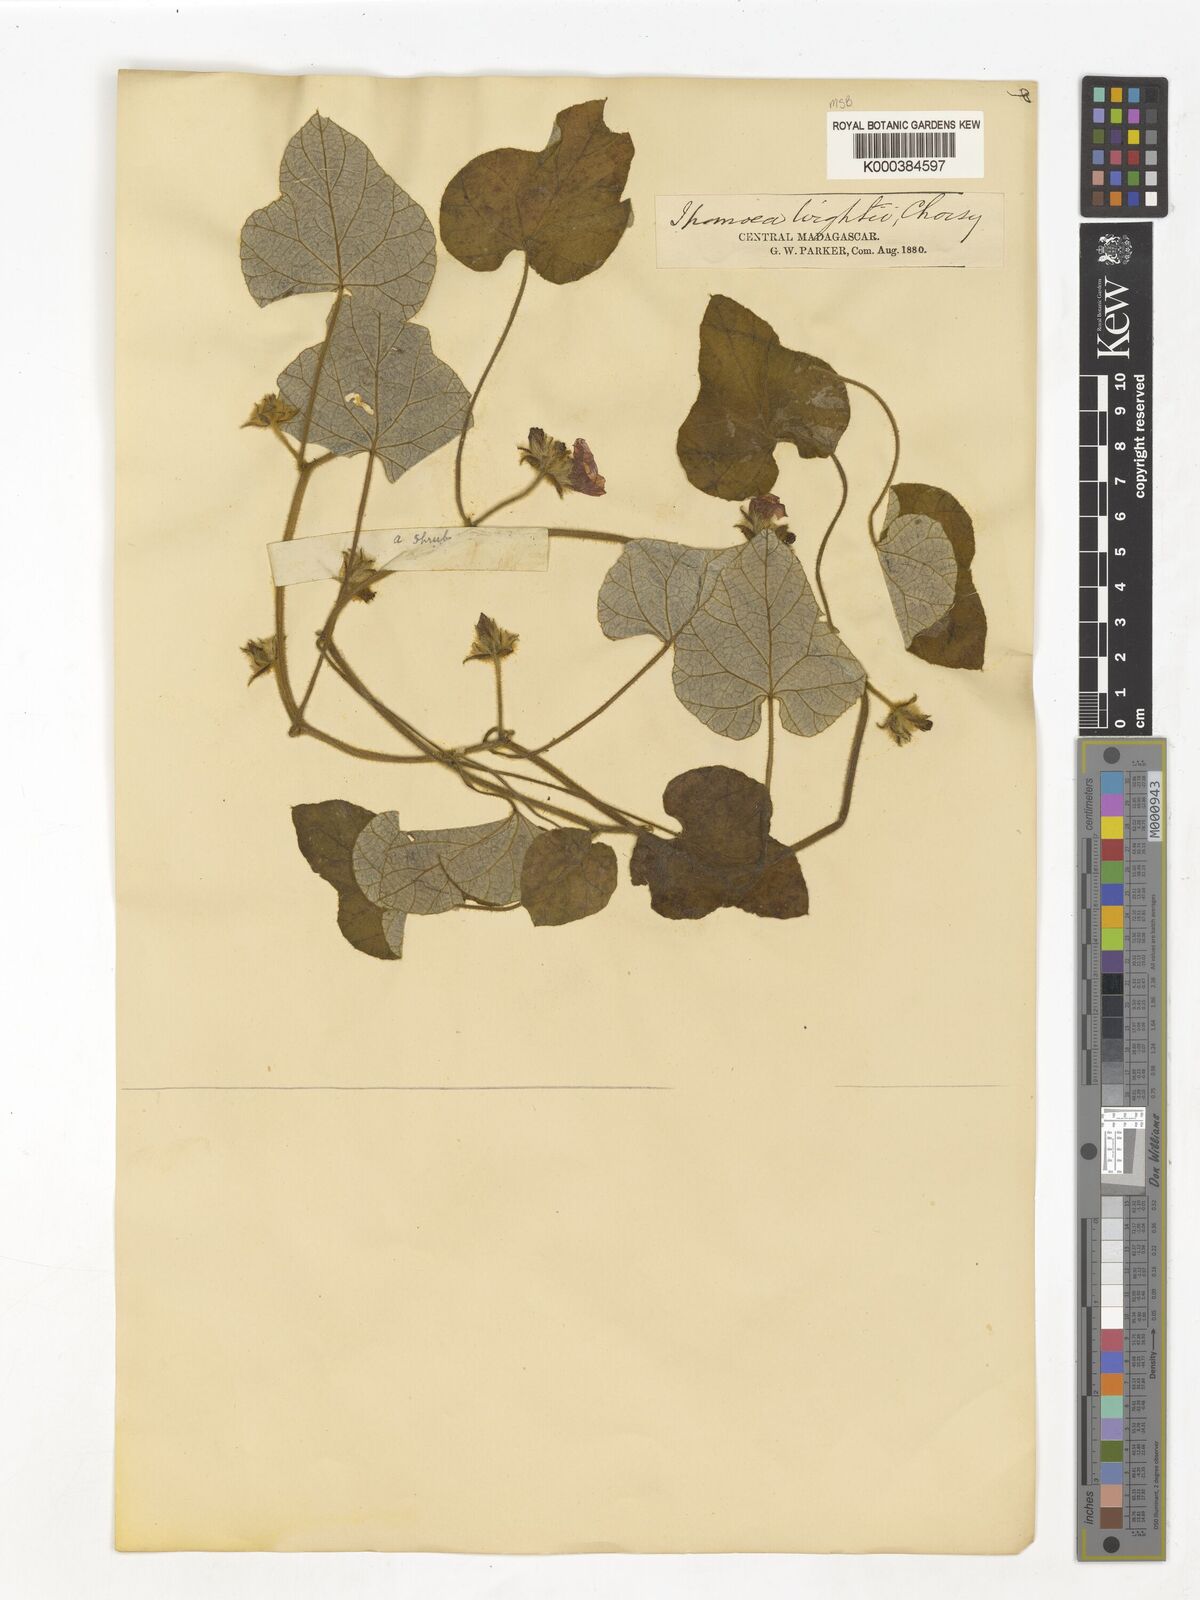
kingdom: Plantae
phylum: Tracheophyta
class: Magnoliopsida
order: Solanales
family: Convolvulaceae
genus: Ipomoea
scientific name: Ipomoea wightii
